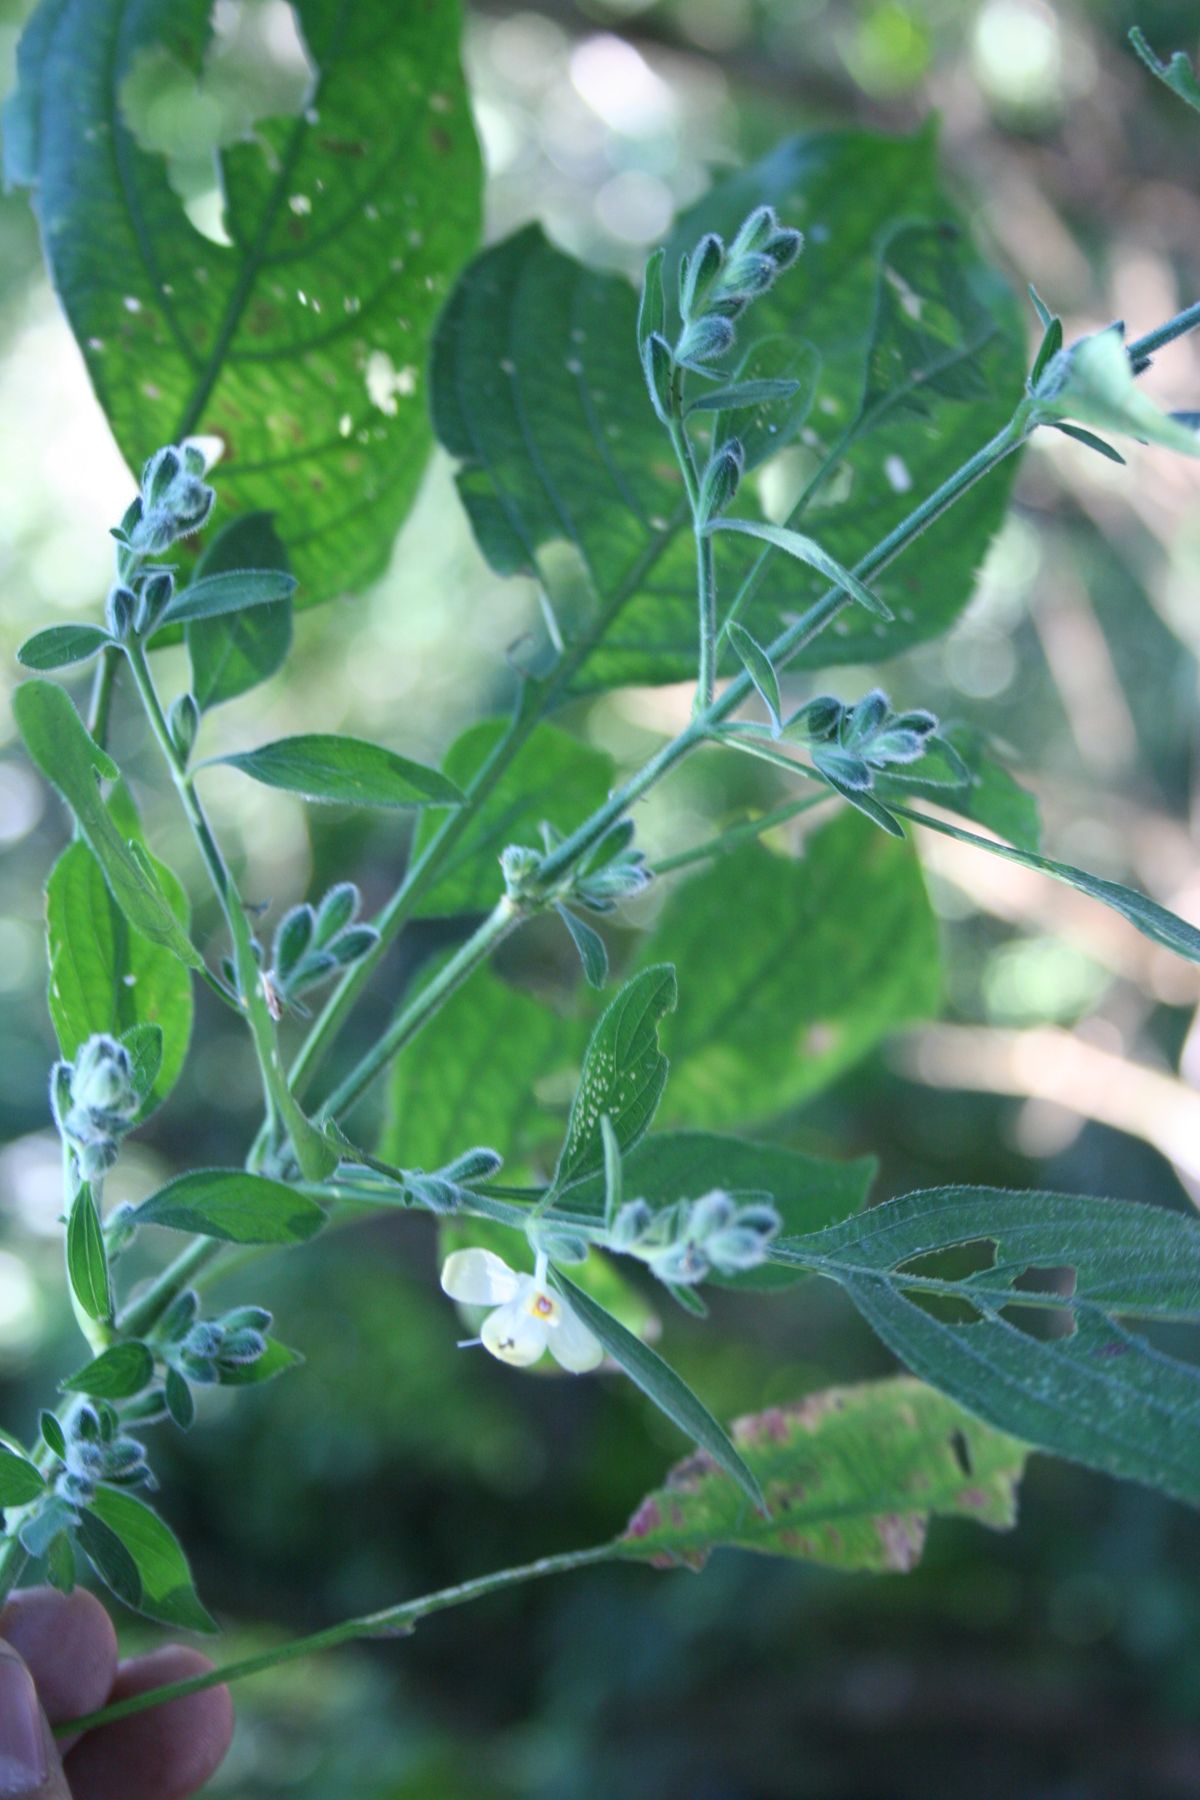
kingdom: Plantae
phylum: Tracheophyta
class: Magnoliopsida
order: Lamiales
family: Acanthaceae
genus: Henrya
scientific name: Henrya insularis
